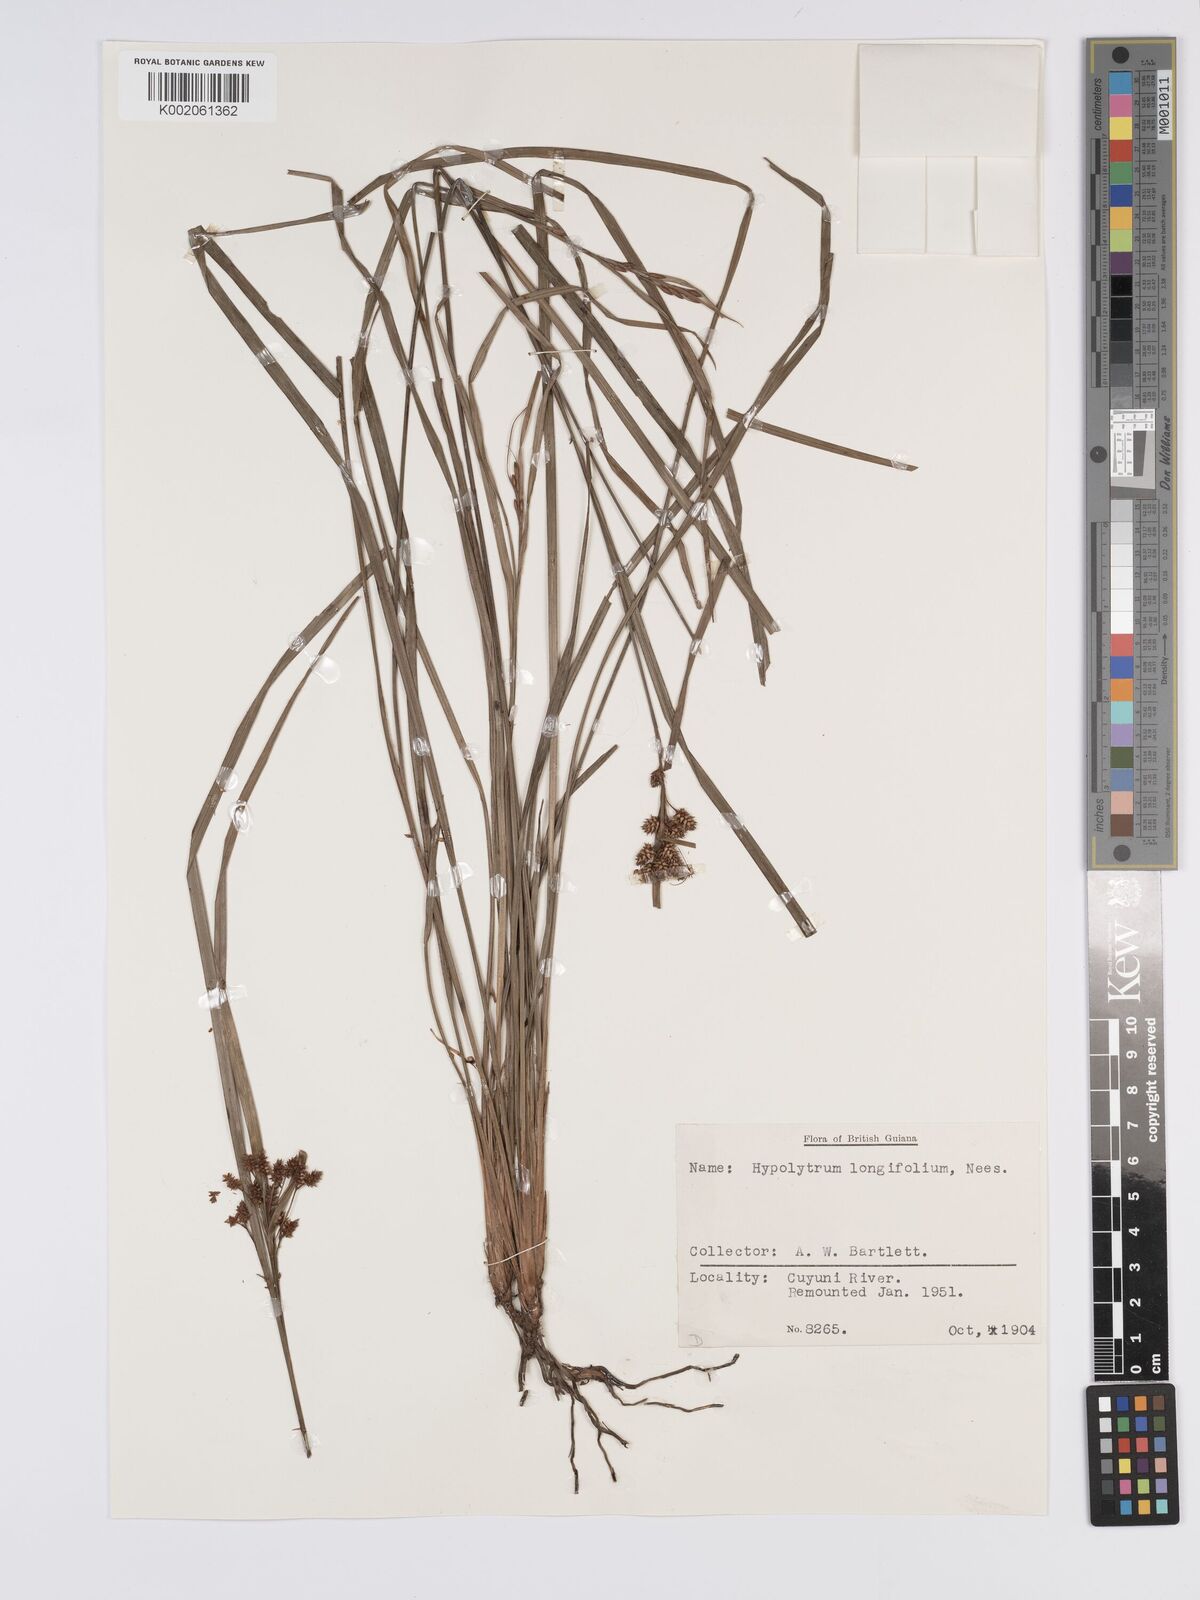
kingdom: Plantae
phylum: Tracheophyta
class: Liliopsida
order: Poales
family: Cyperaceae
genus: Hypolytrum
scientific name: Hypolytrum longifolium
